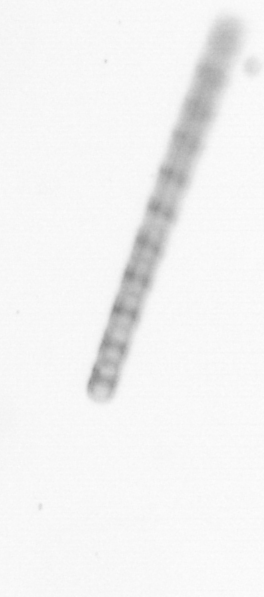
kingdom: Chromista
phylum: Ochrophyta
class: Bacillariophyceae
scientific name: Bacillariophyceae
